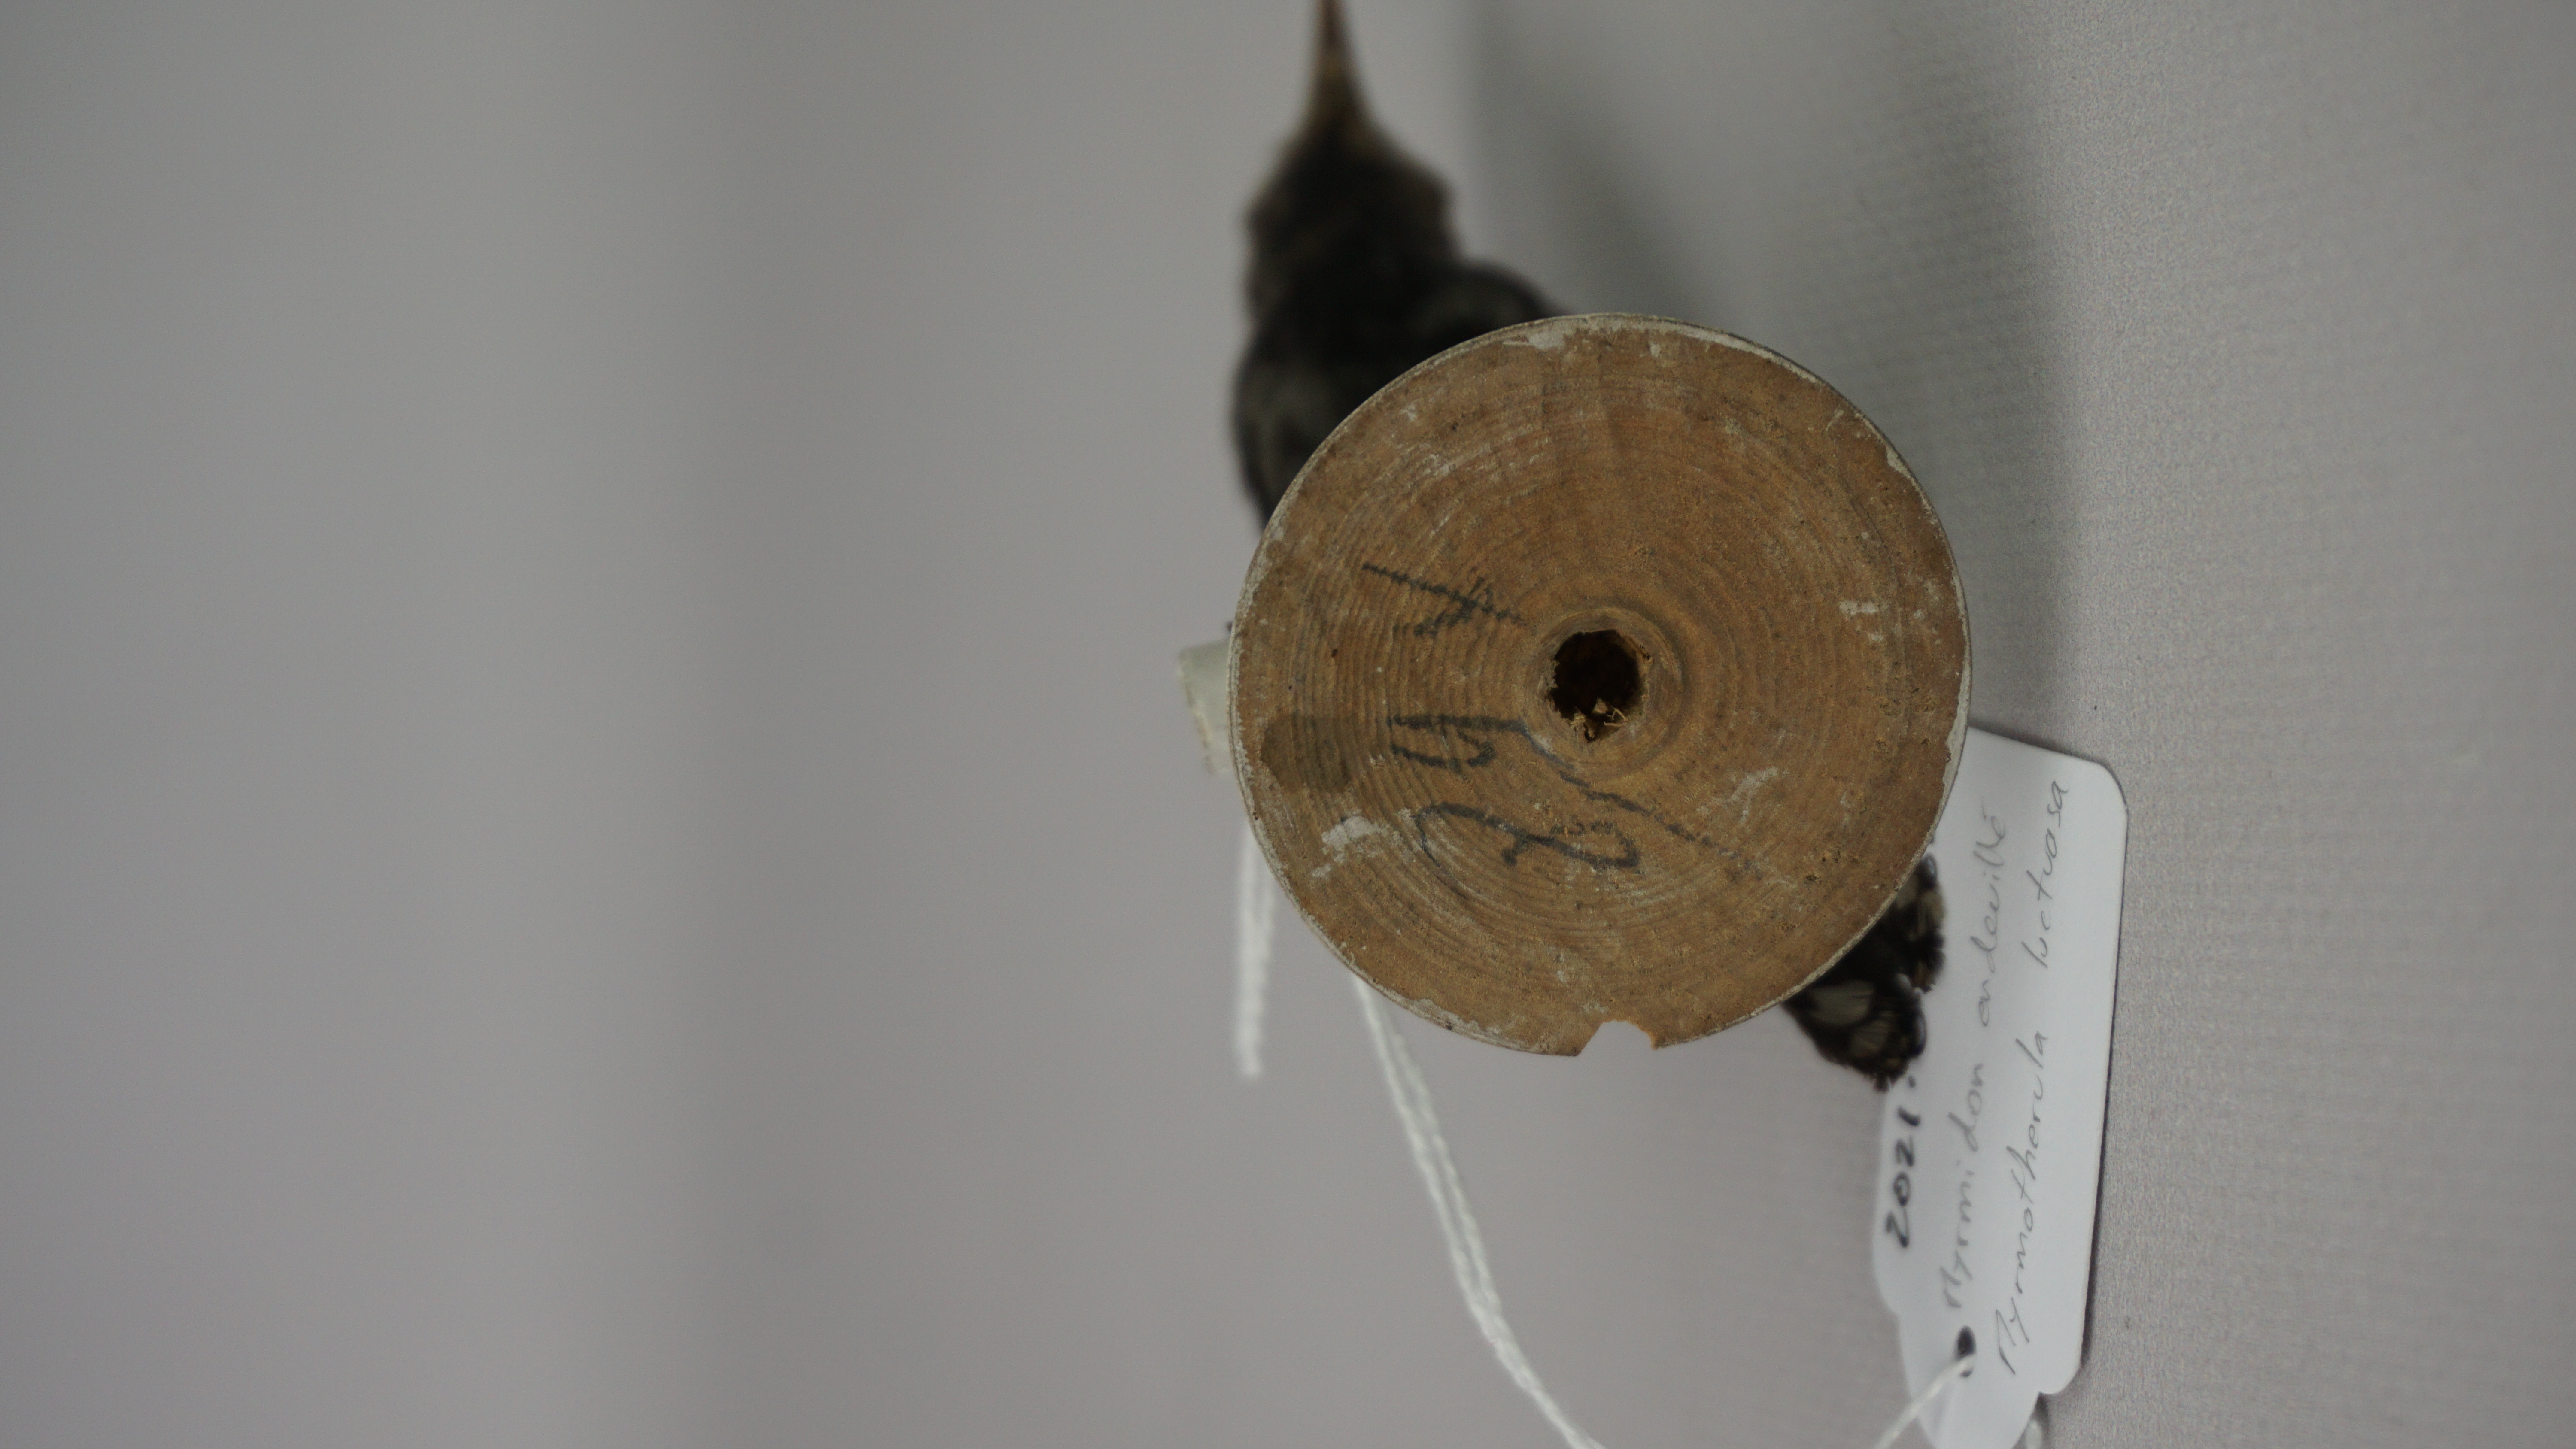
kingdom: Animalia
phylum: Chordata
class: Aves
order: Passeriformes
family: Thamnophilidae
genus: Myrmotherula
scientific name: Myrmotherula luctuosa
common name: Silvery-flanked antwren
